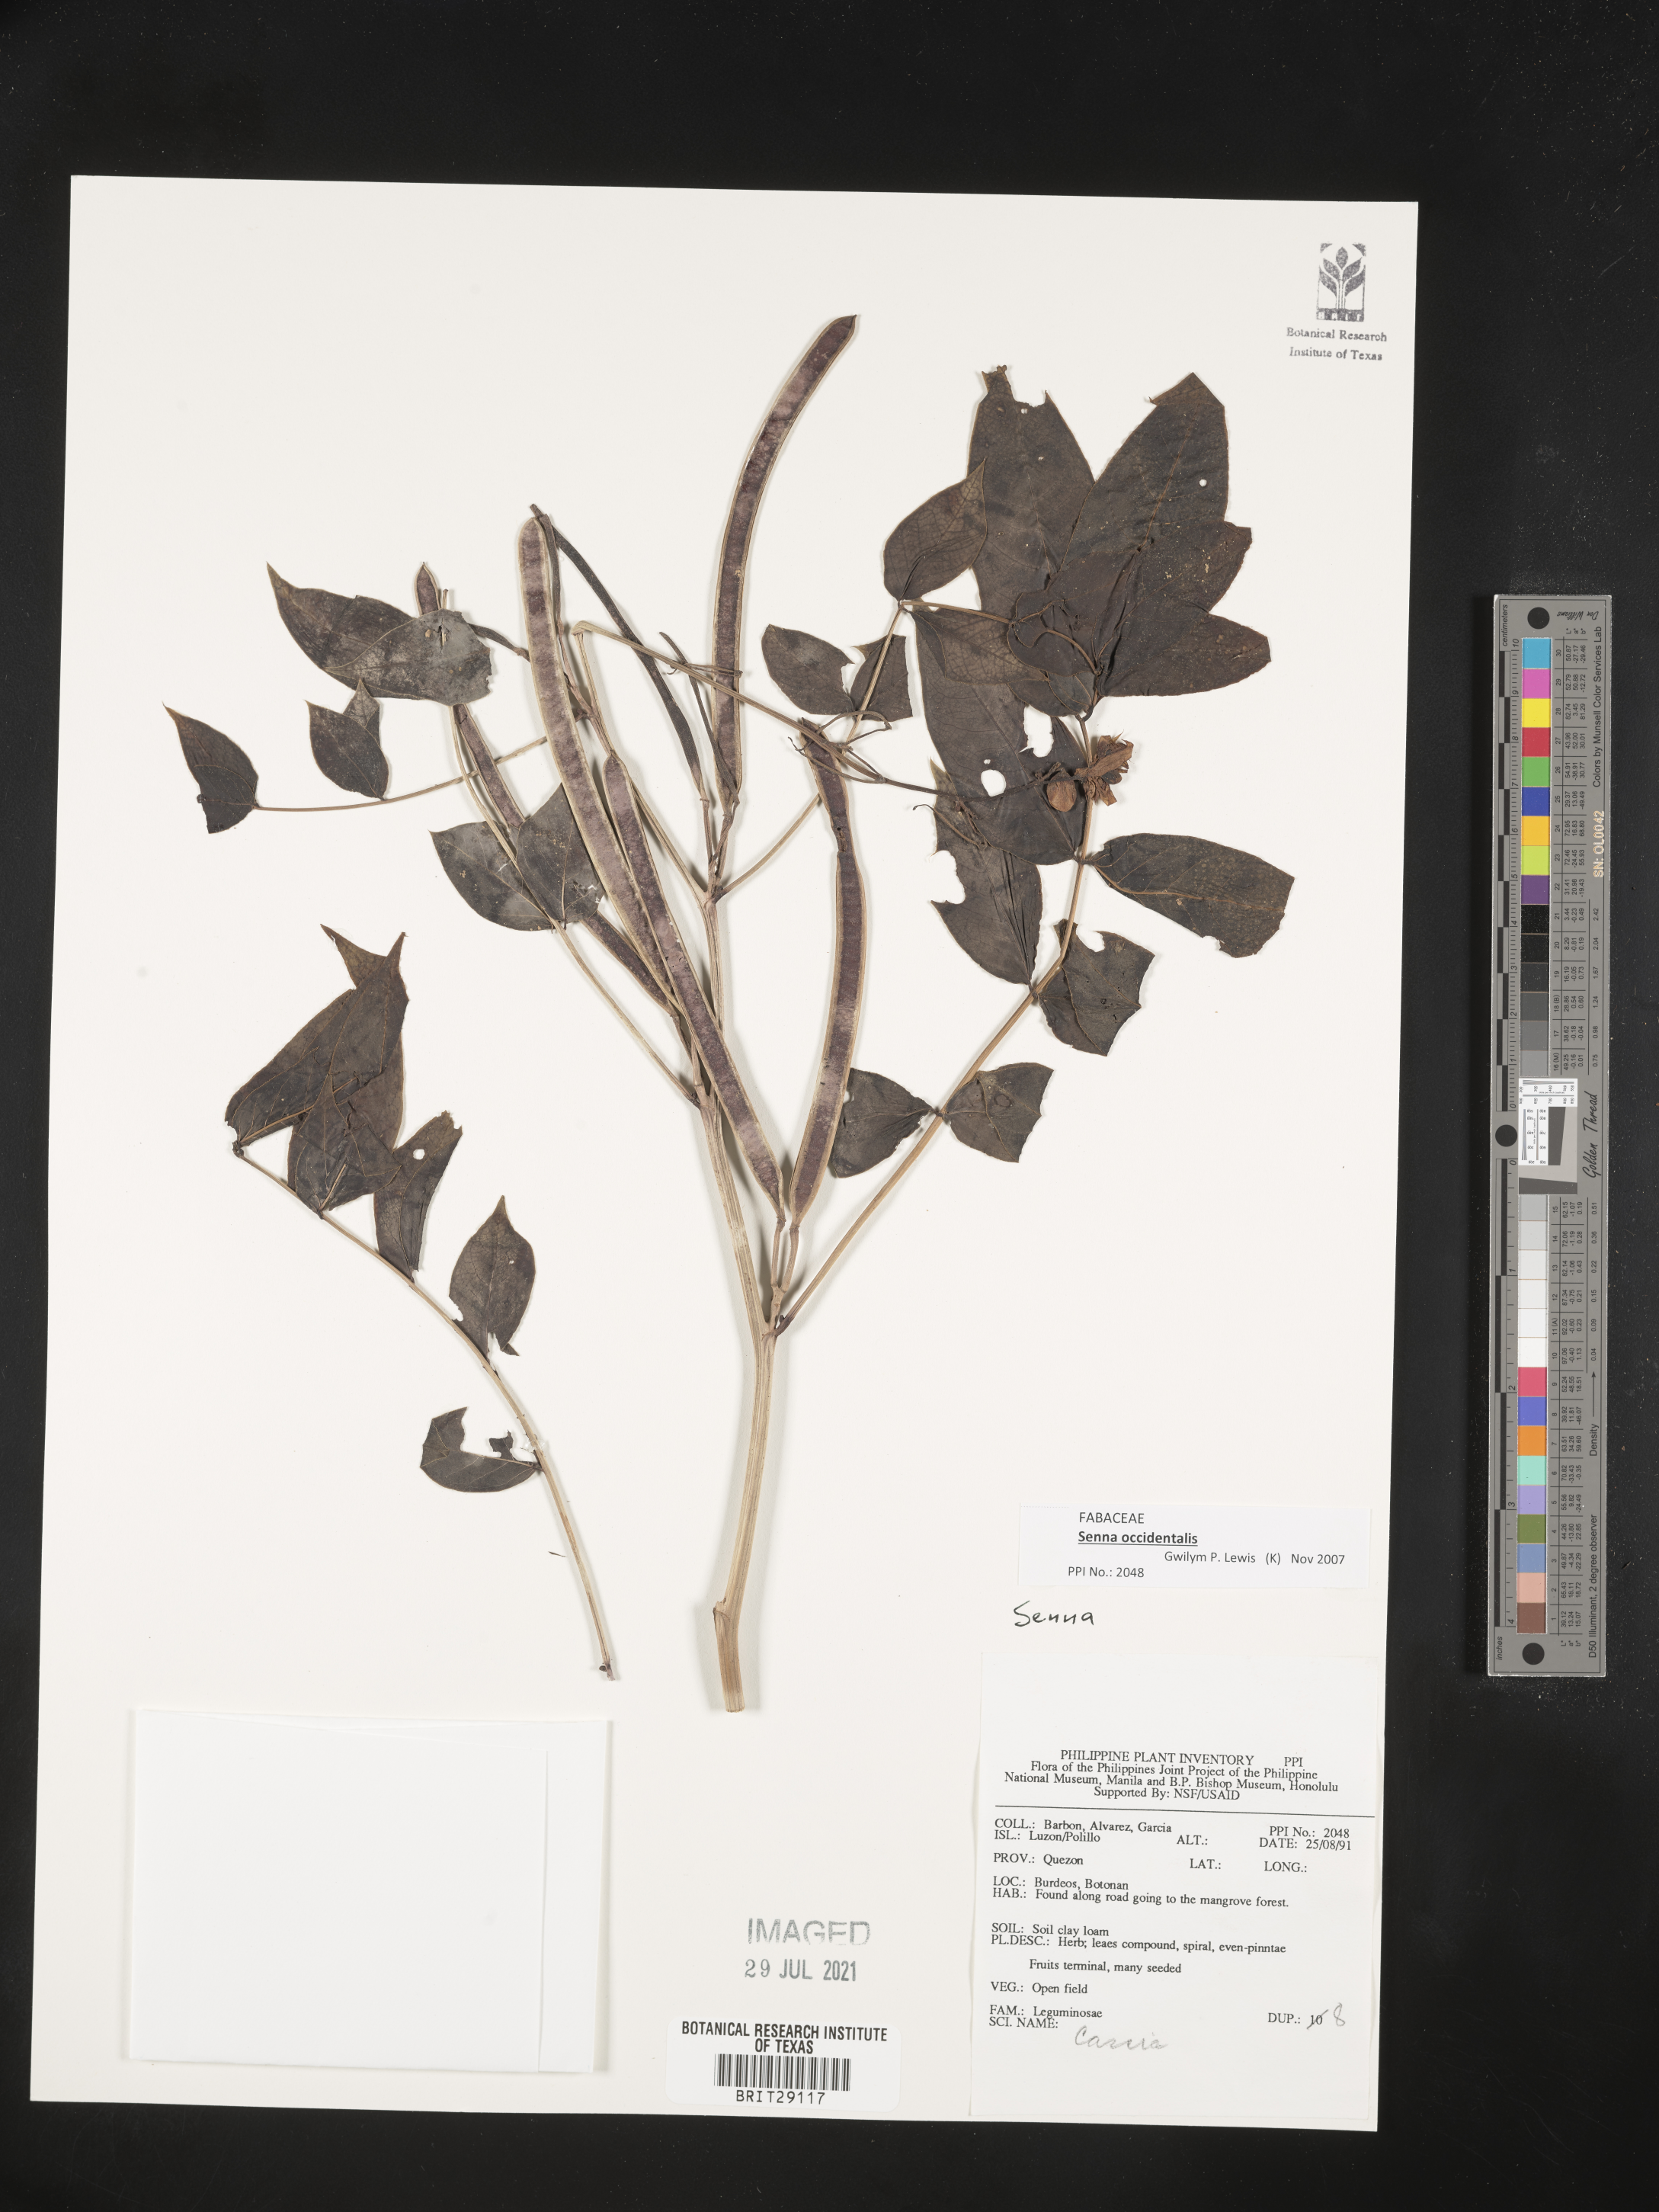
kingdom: Plantae
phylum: Tracheophyta
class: Magnoliopsida
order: Fabales
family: Fabaceae
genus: Senna
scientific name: Senna occidentalis
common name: Septicweed
